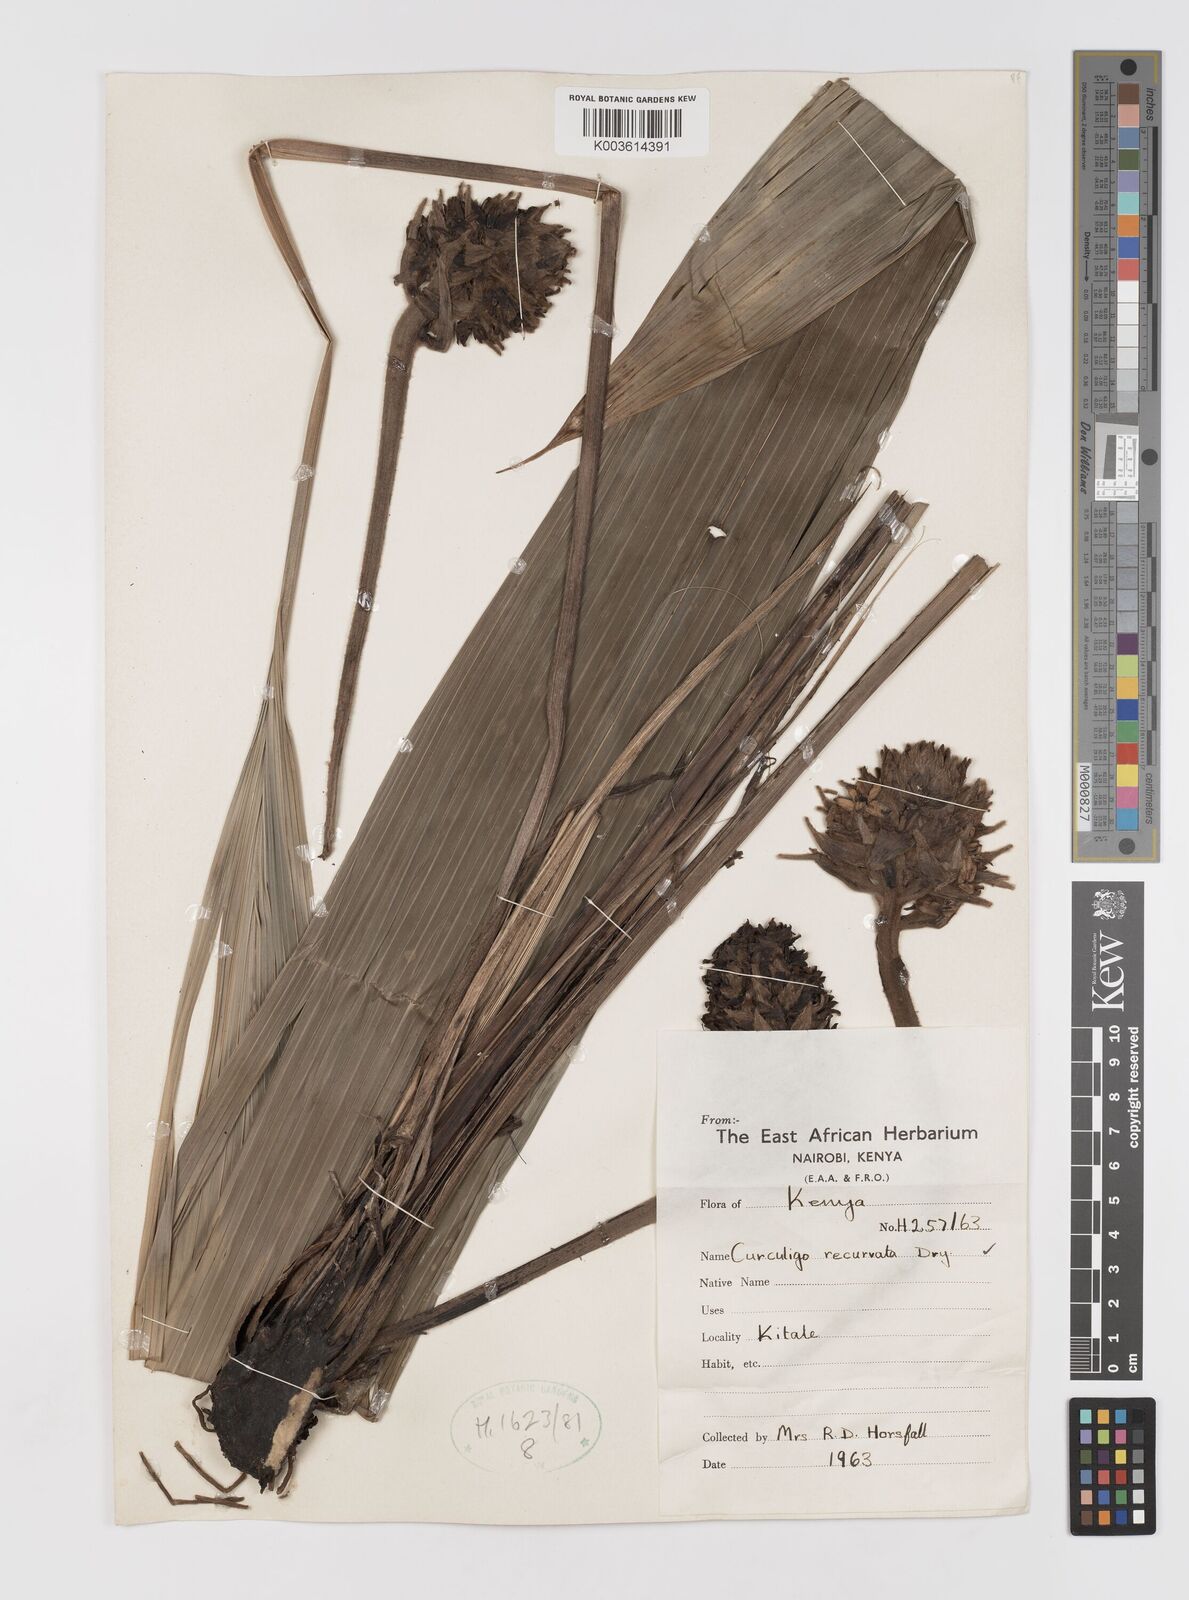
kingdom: Plantae
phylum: Tracheophyta
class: Liliopsida
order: Asparagales
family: Hypoxidaceae
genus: Curculigo
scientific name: Curculigo capitulata
